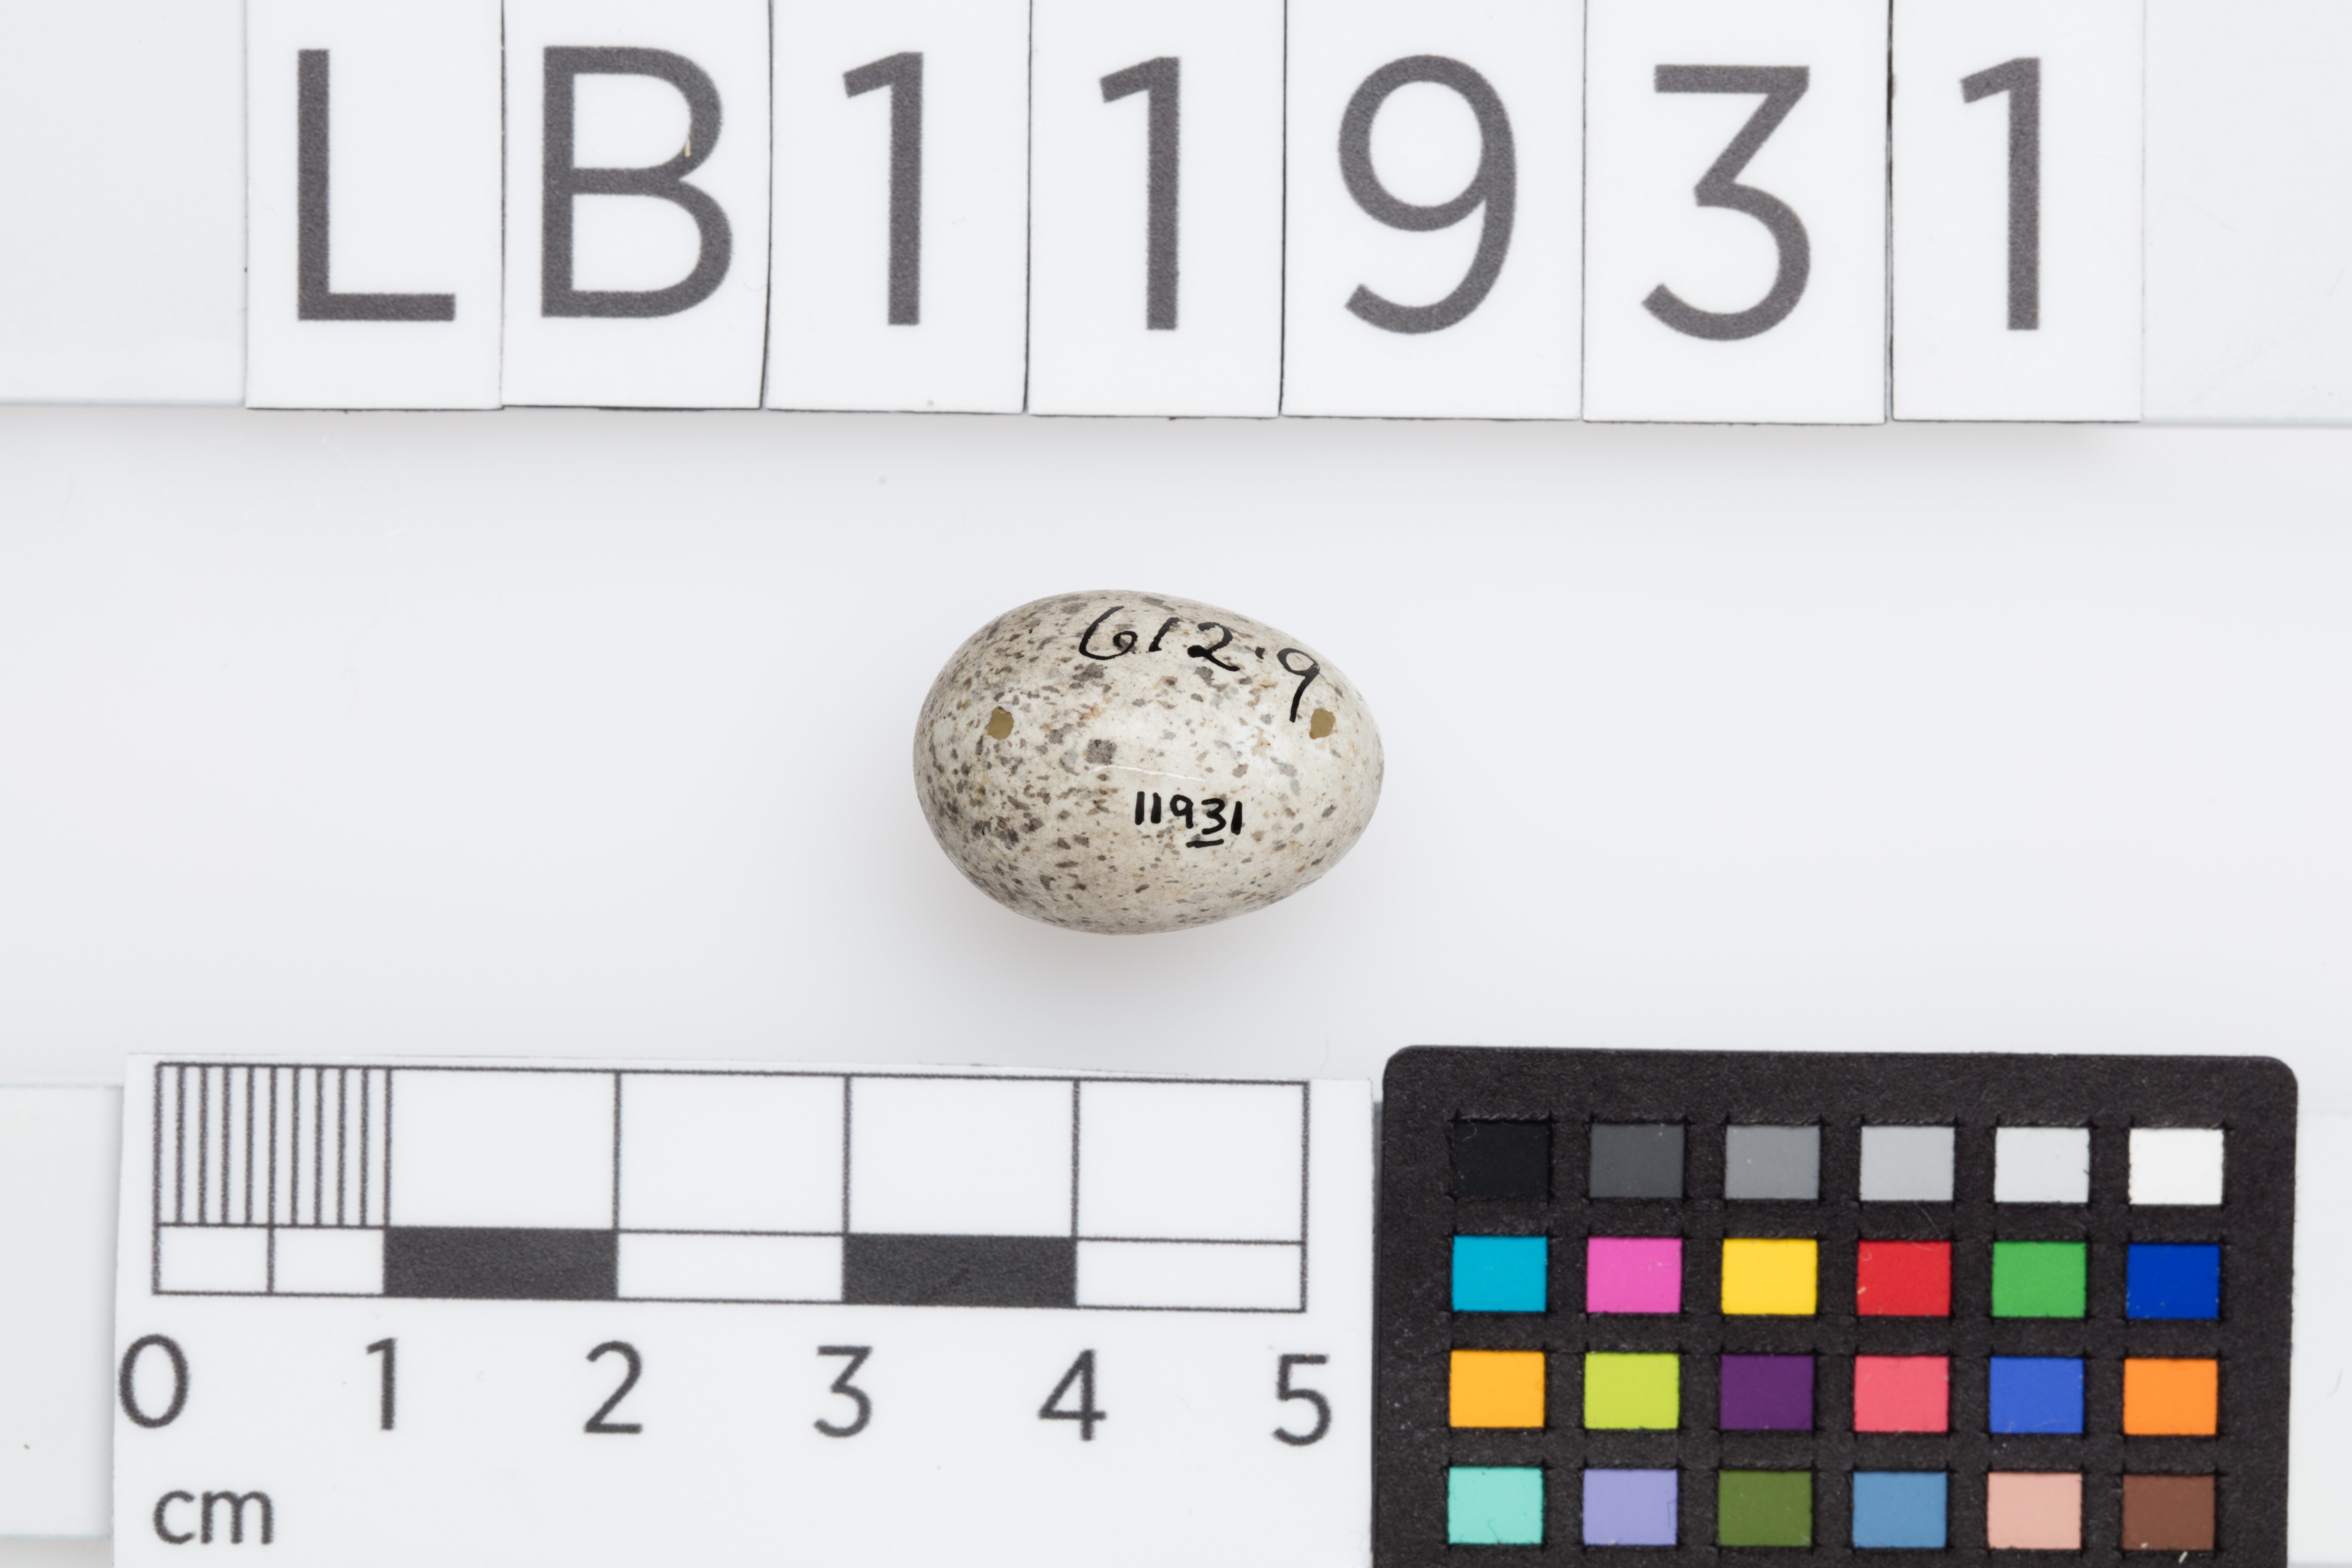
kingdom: Animalia
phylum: Chordata
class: Aves
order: Passeriformes
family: Motacillidae
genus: Motacilla
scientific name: Motacilla alba
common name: White wagtail
